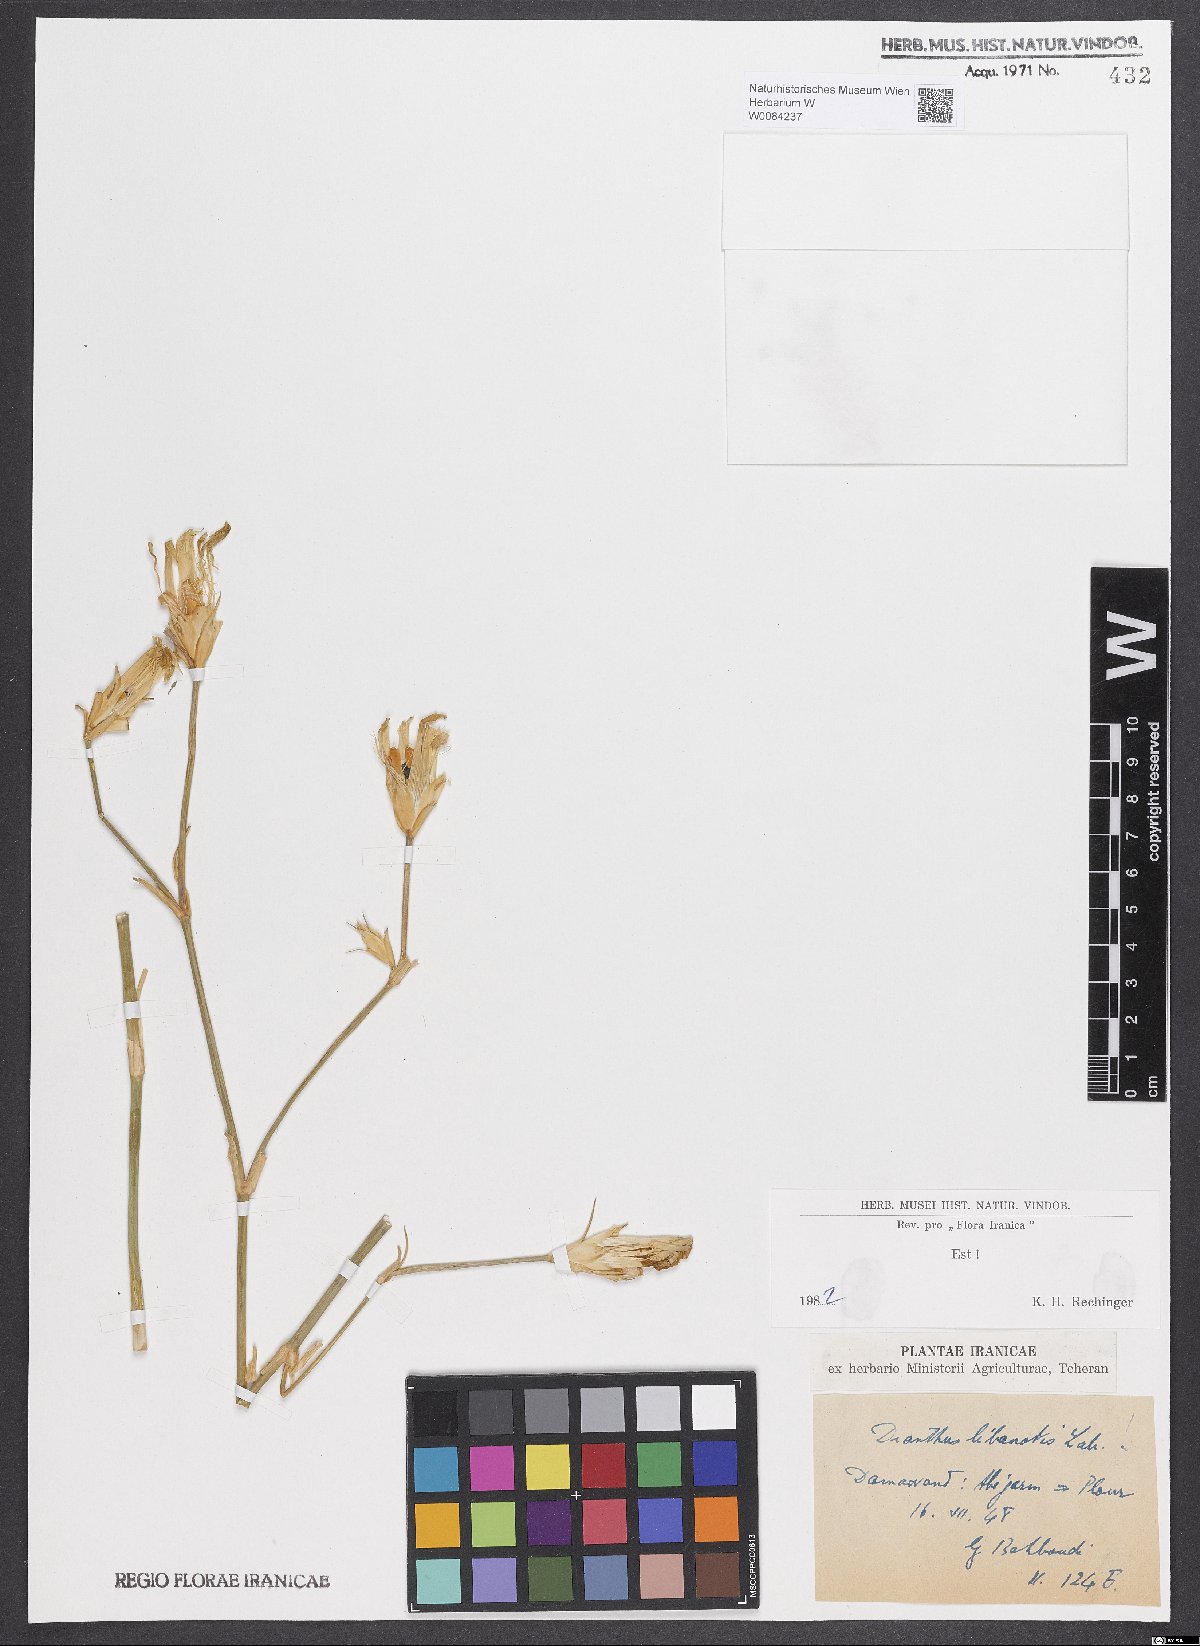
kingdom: Plantae
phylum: Tracheophyta
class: Magnoliopsida
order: Caryophyllales
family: Caryophyllaceae
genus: Dianthus
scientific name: Dianthus libanotis
